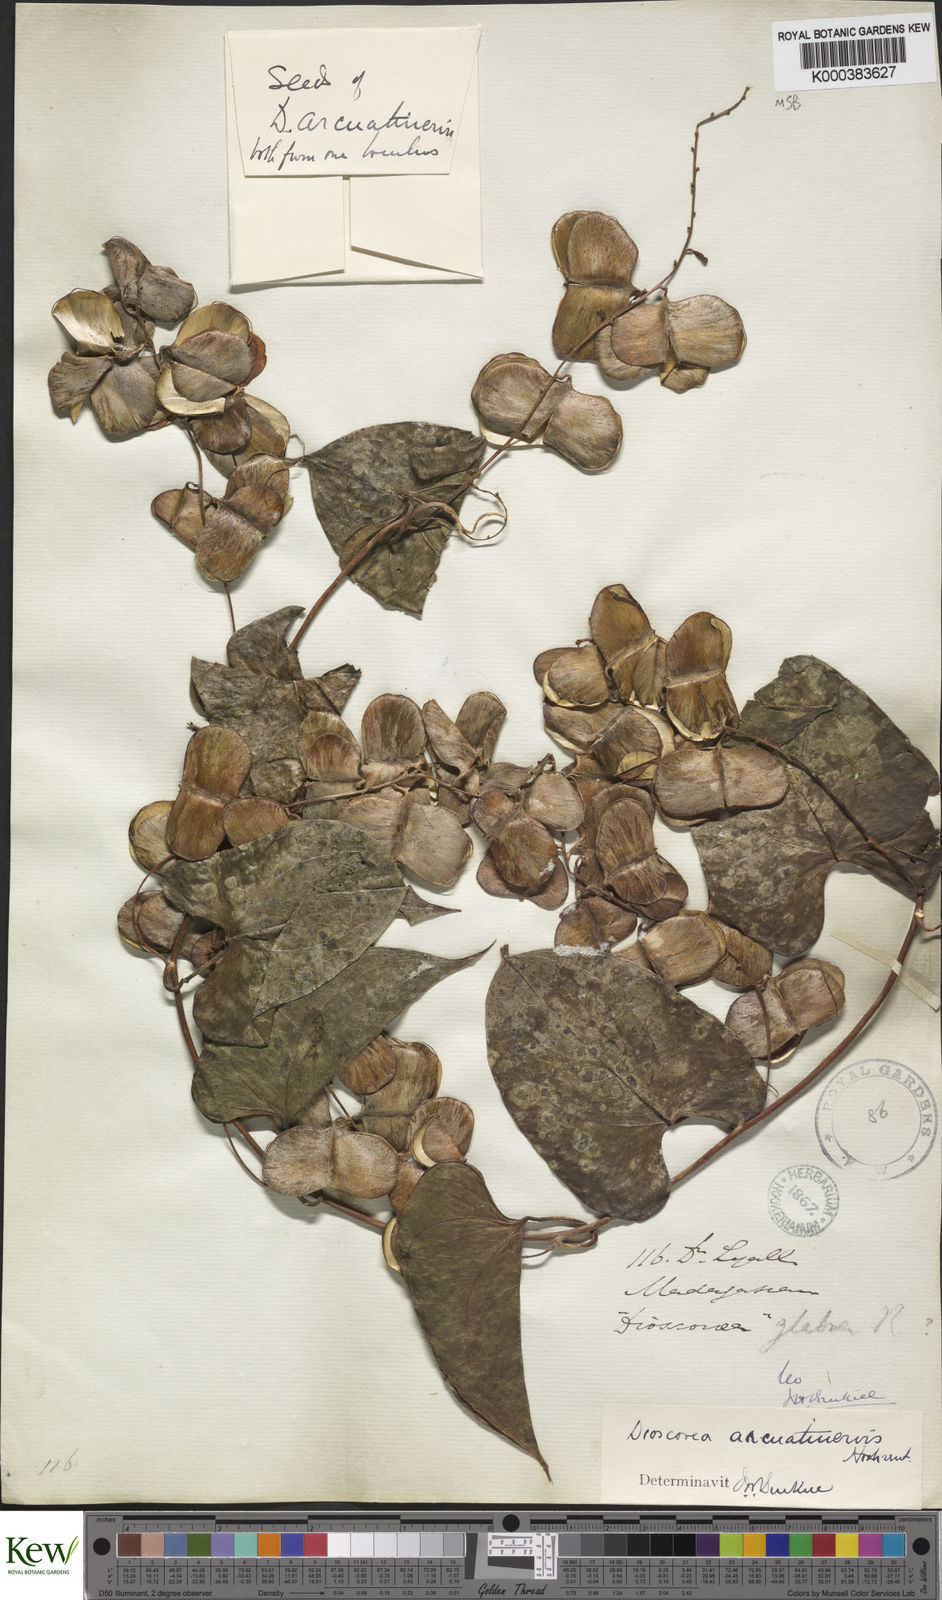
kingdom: Plantae
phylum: Tracheophyta
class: Liliopsida
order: Dioscoreales
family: Dioscoreaceae
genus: Dioscorea
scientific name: Dioscorea arcuatinervis
